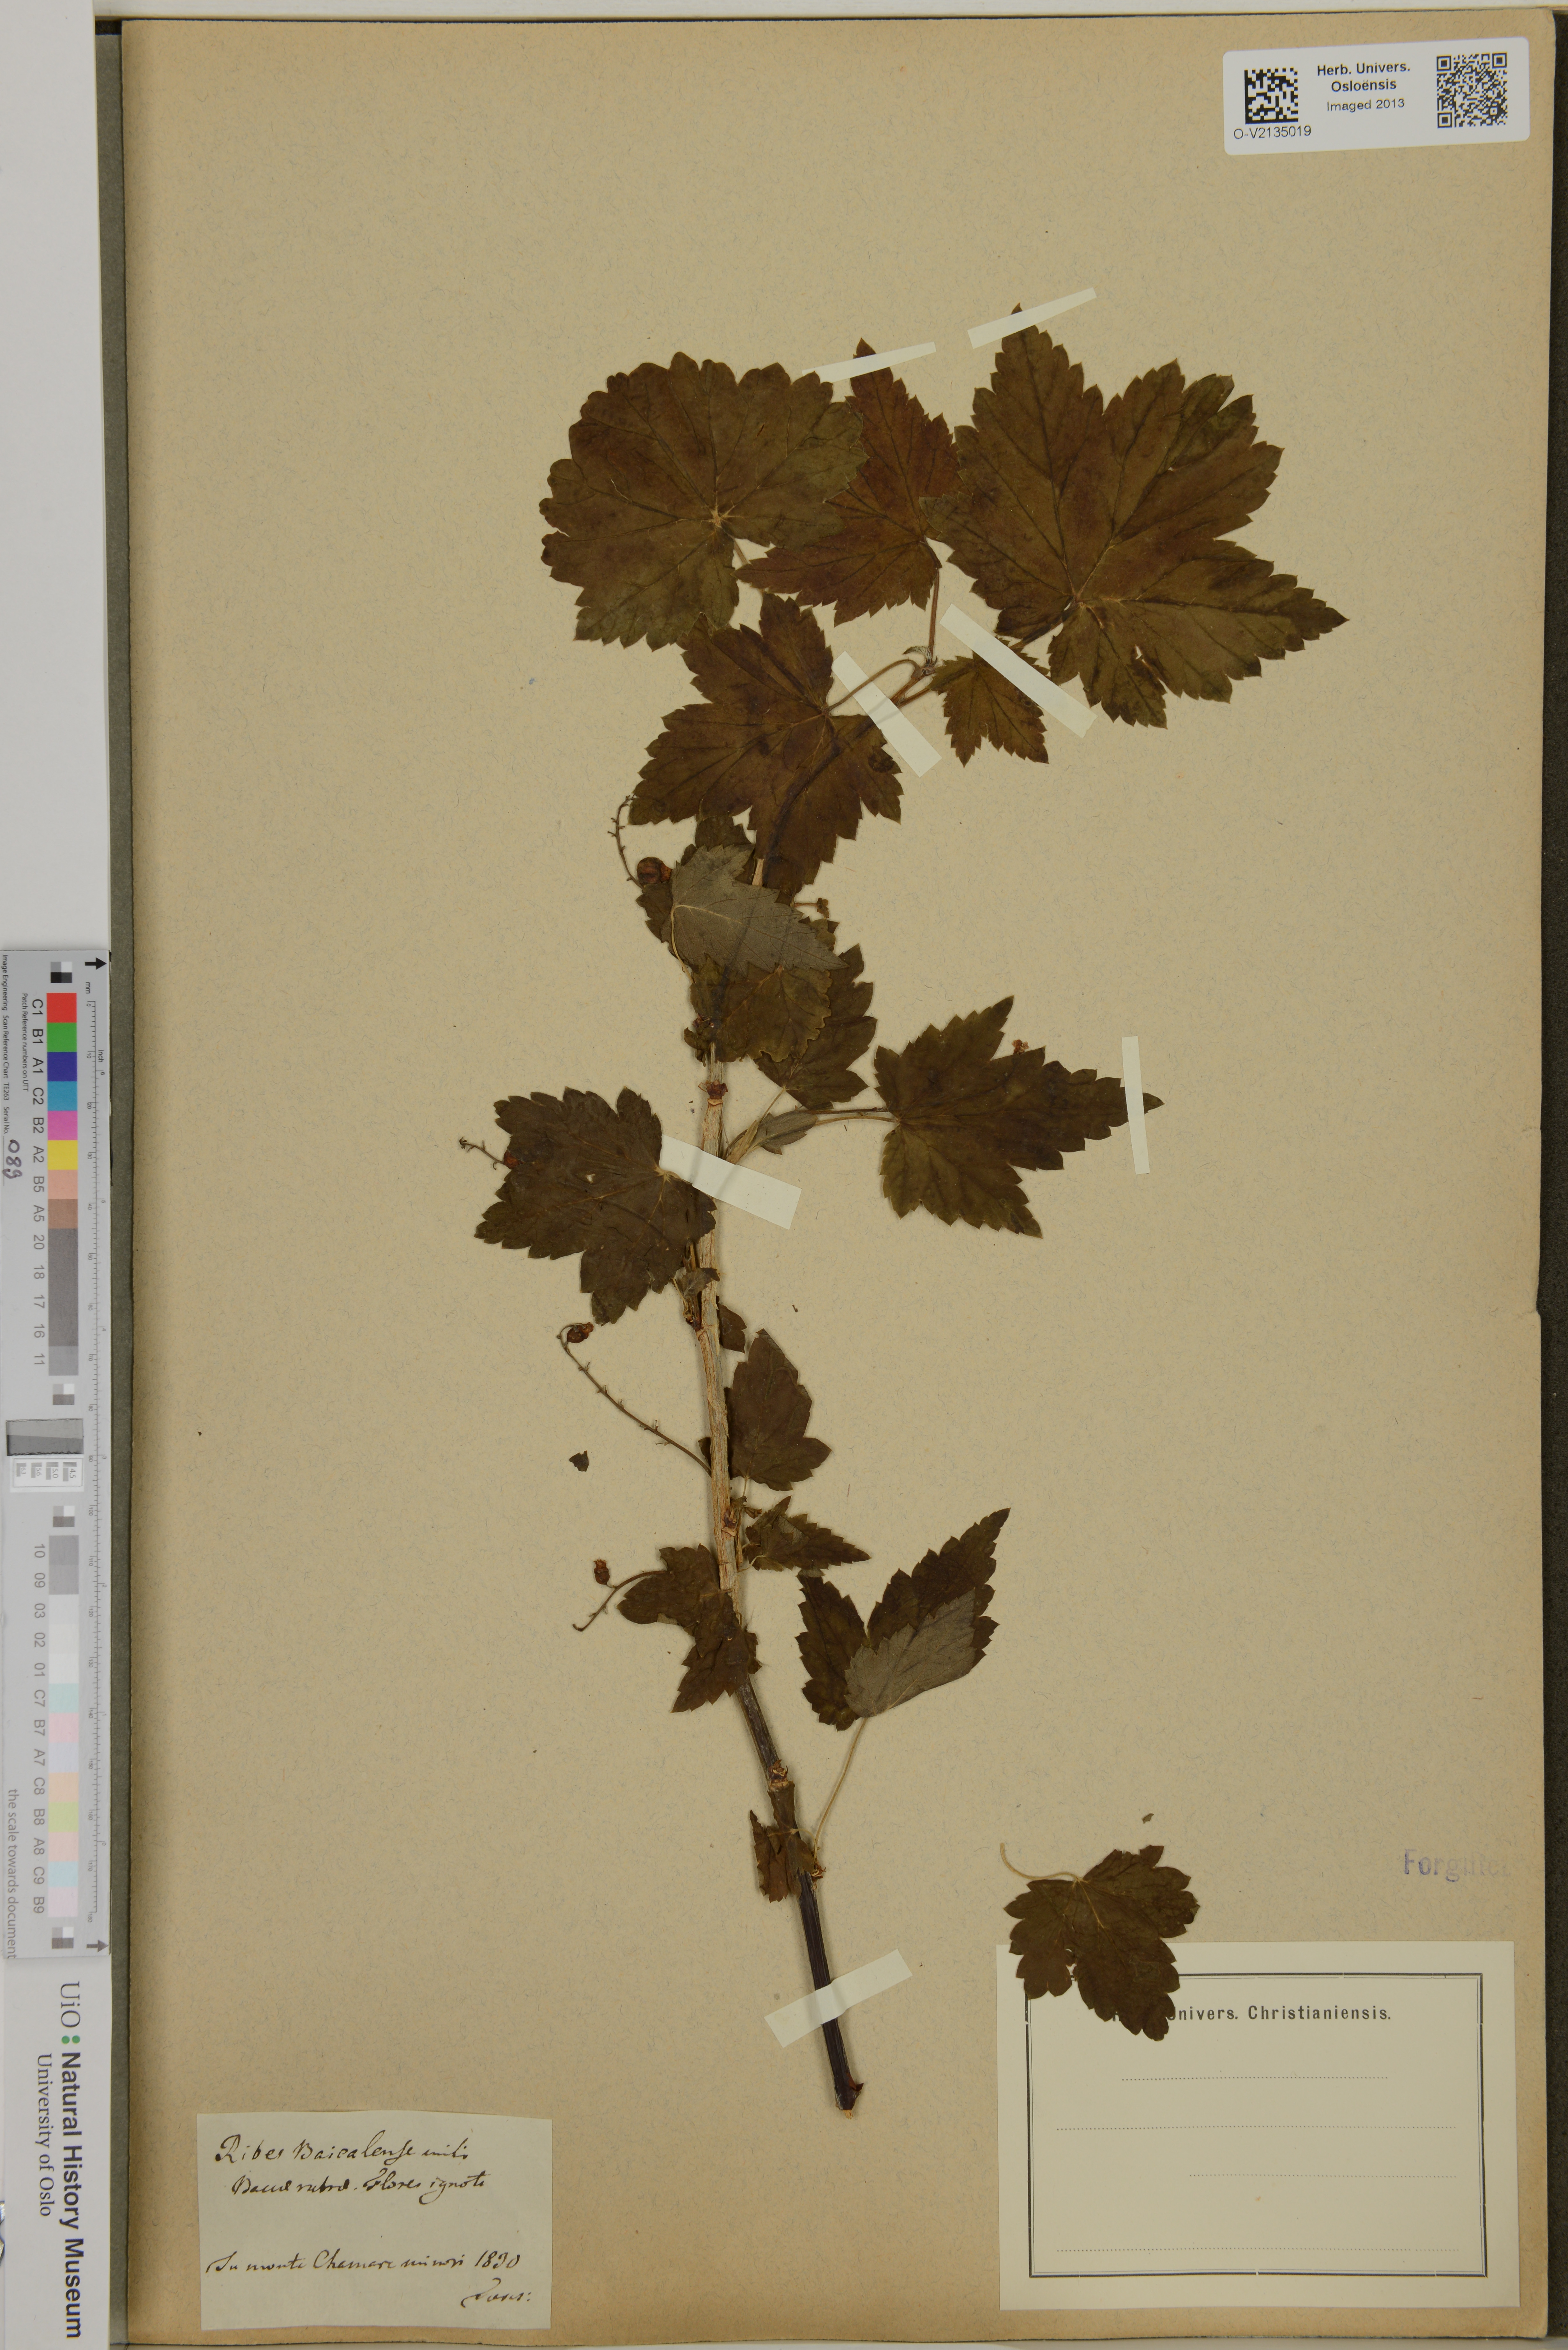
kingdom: Plantae
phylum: Tracheophyta
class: Magnoliopsida
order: Saxifragales
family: Grossulariaceae
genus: Ribes
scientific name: Ribes rubrum
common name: Red currant
